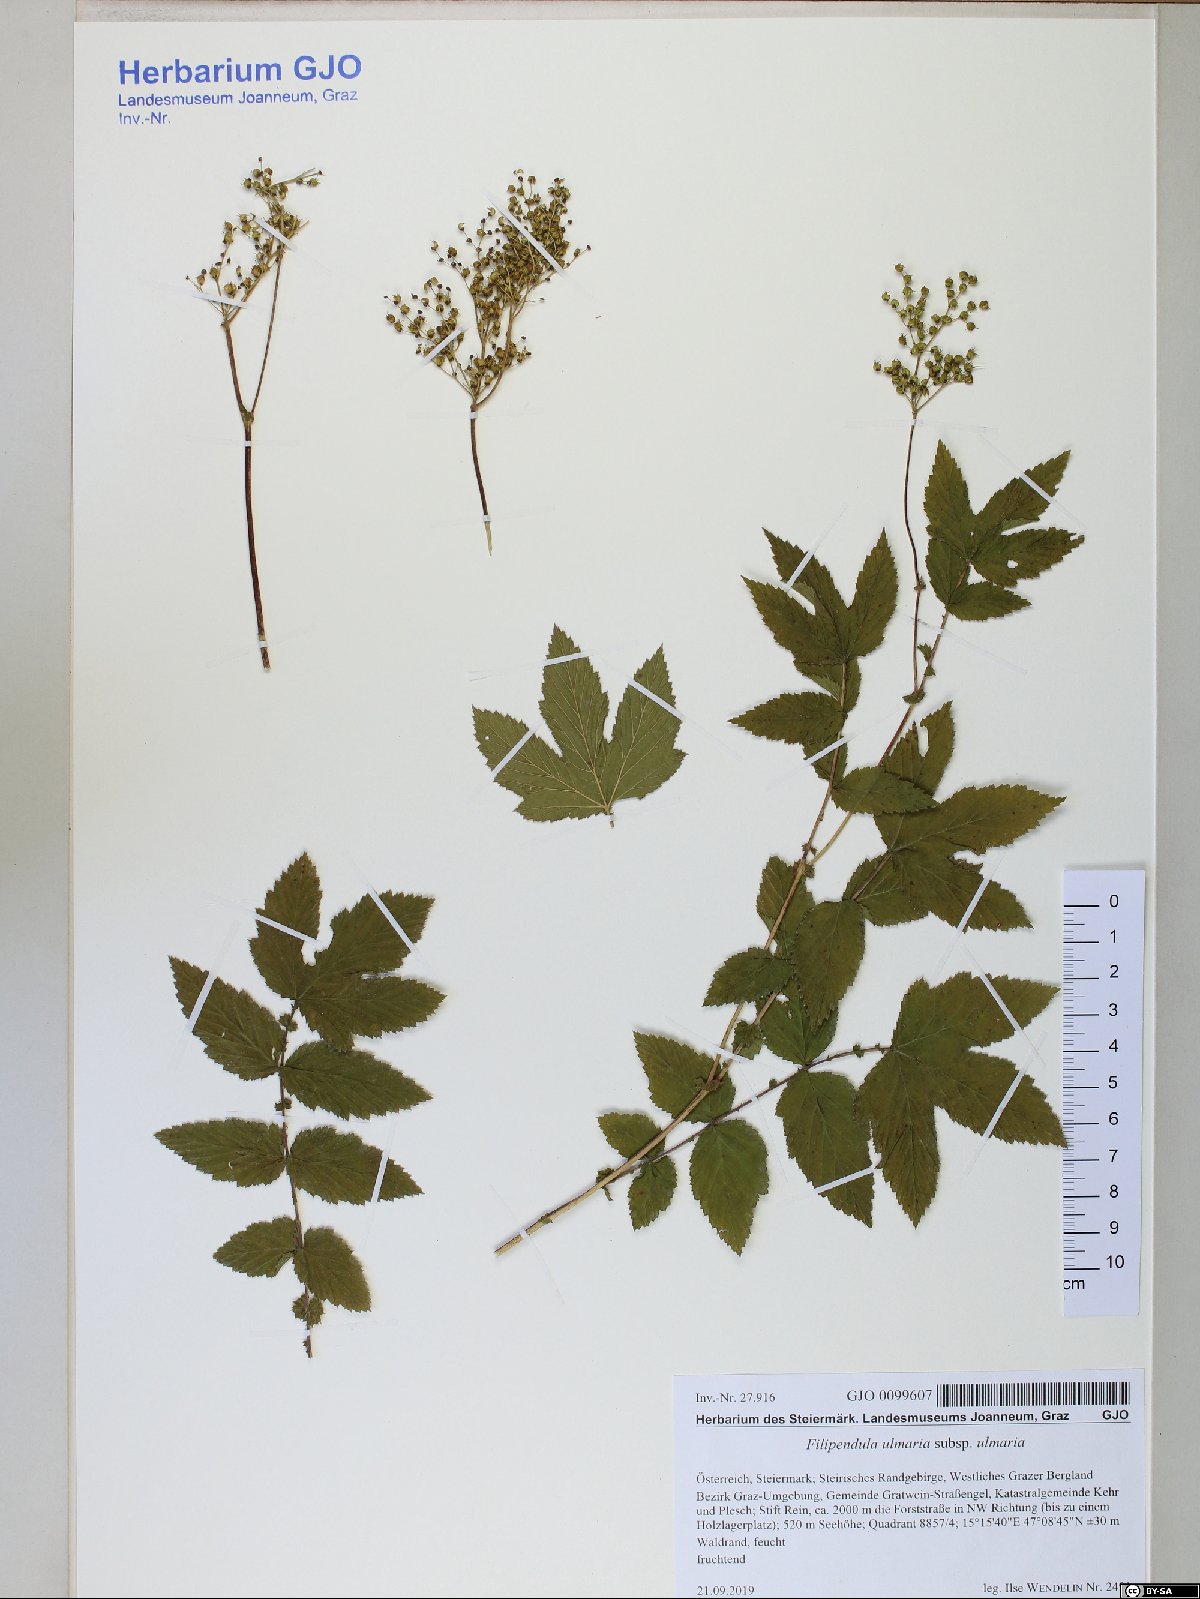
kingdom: Plantae
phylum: Tracheophyta
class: Magnoliopsida
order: Rosales
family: Rosaceae
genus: Filipendula
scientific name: Filipendula ulmaria
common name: Meadowsweet
